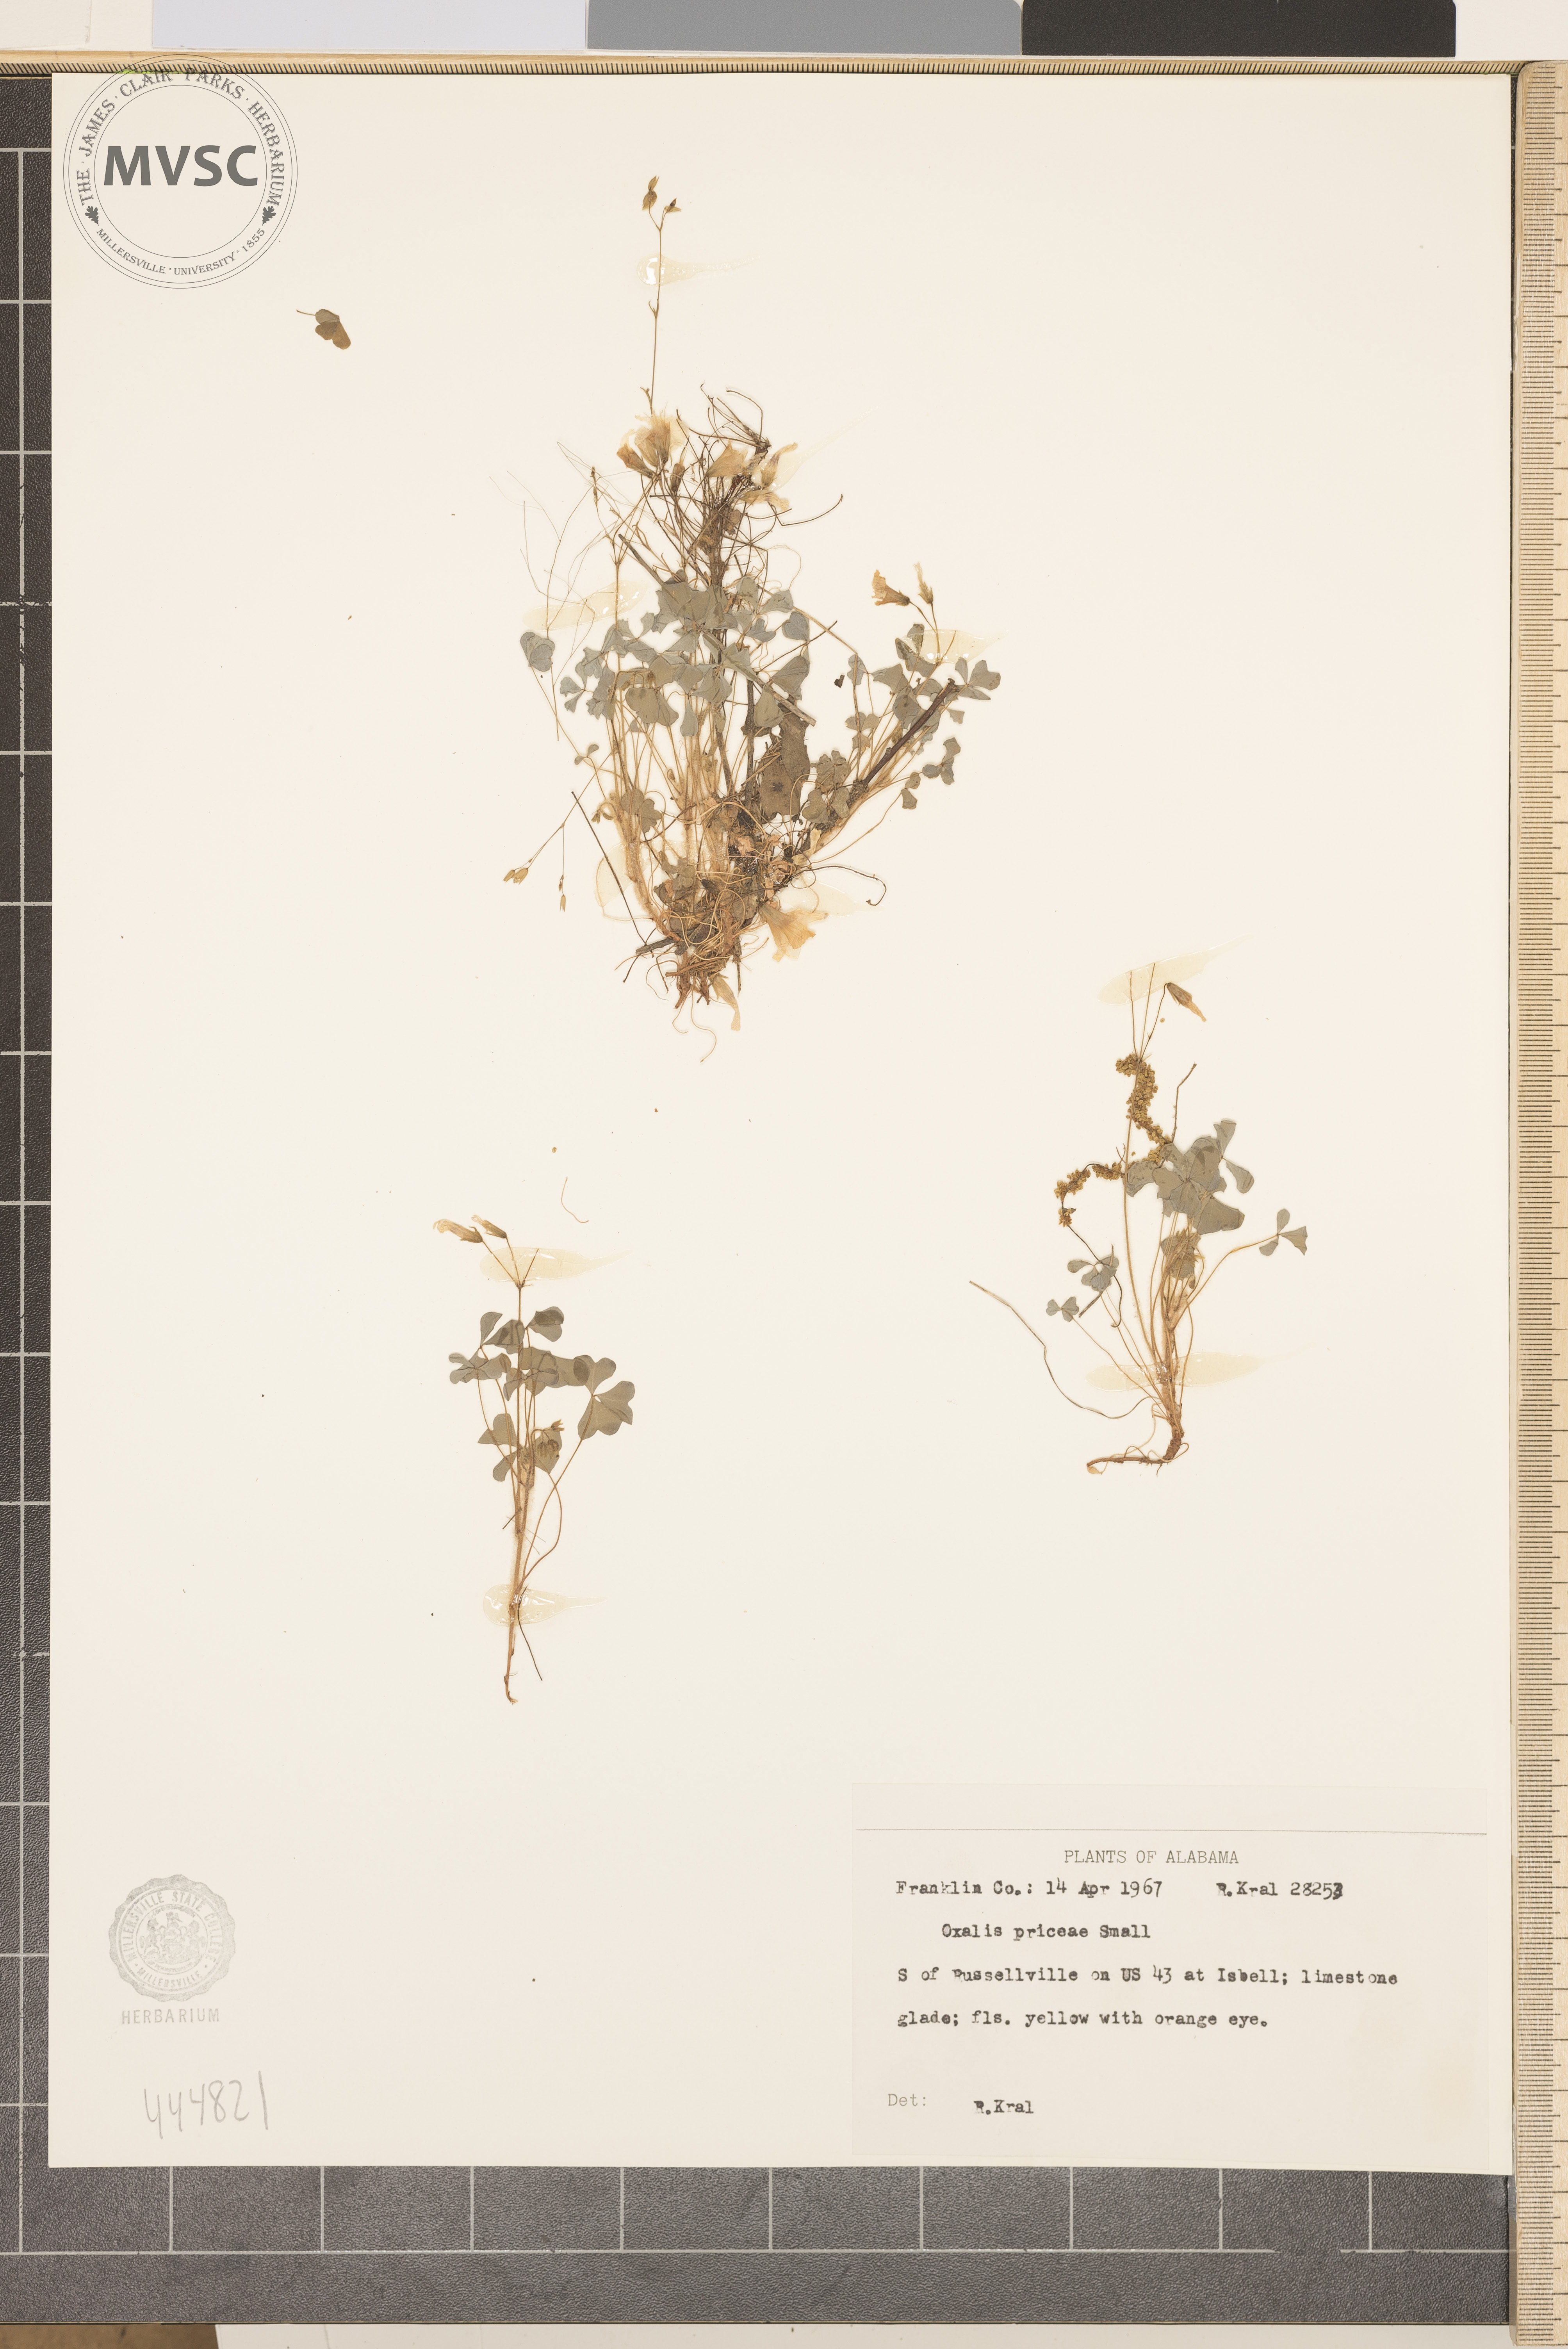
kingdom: Plantae
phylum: Tracheophyta
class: Magnoliopsida
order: Oxalidales
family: Oxalidaceae
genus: Oxalis
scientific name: Oxalis macrantha
